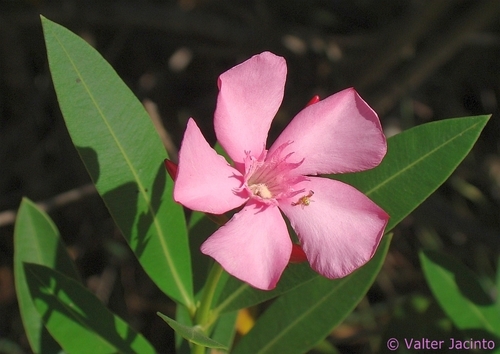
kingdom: Plantae
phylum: Tracheophyta
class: Magnoliopsida
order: Gentianales
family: Apocynaceae
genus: Nerium
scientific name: Nerium oleander
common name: Oleander
